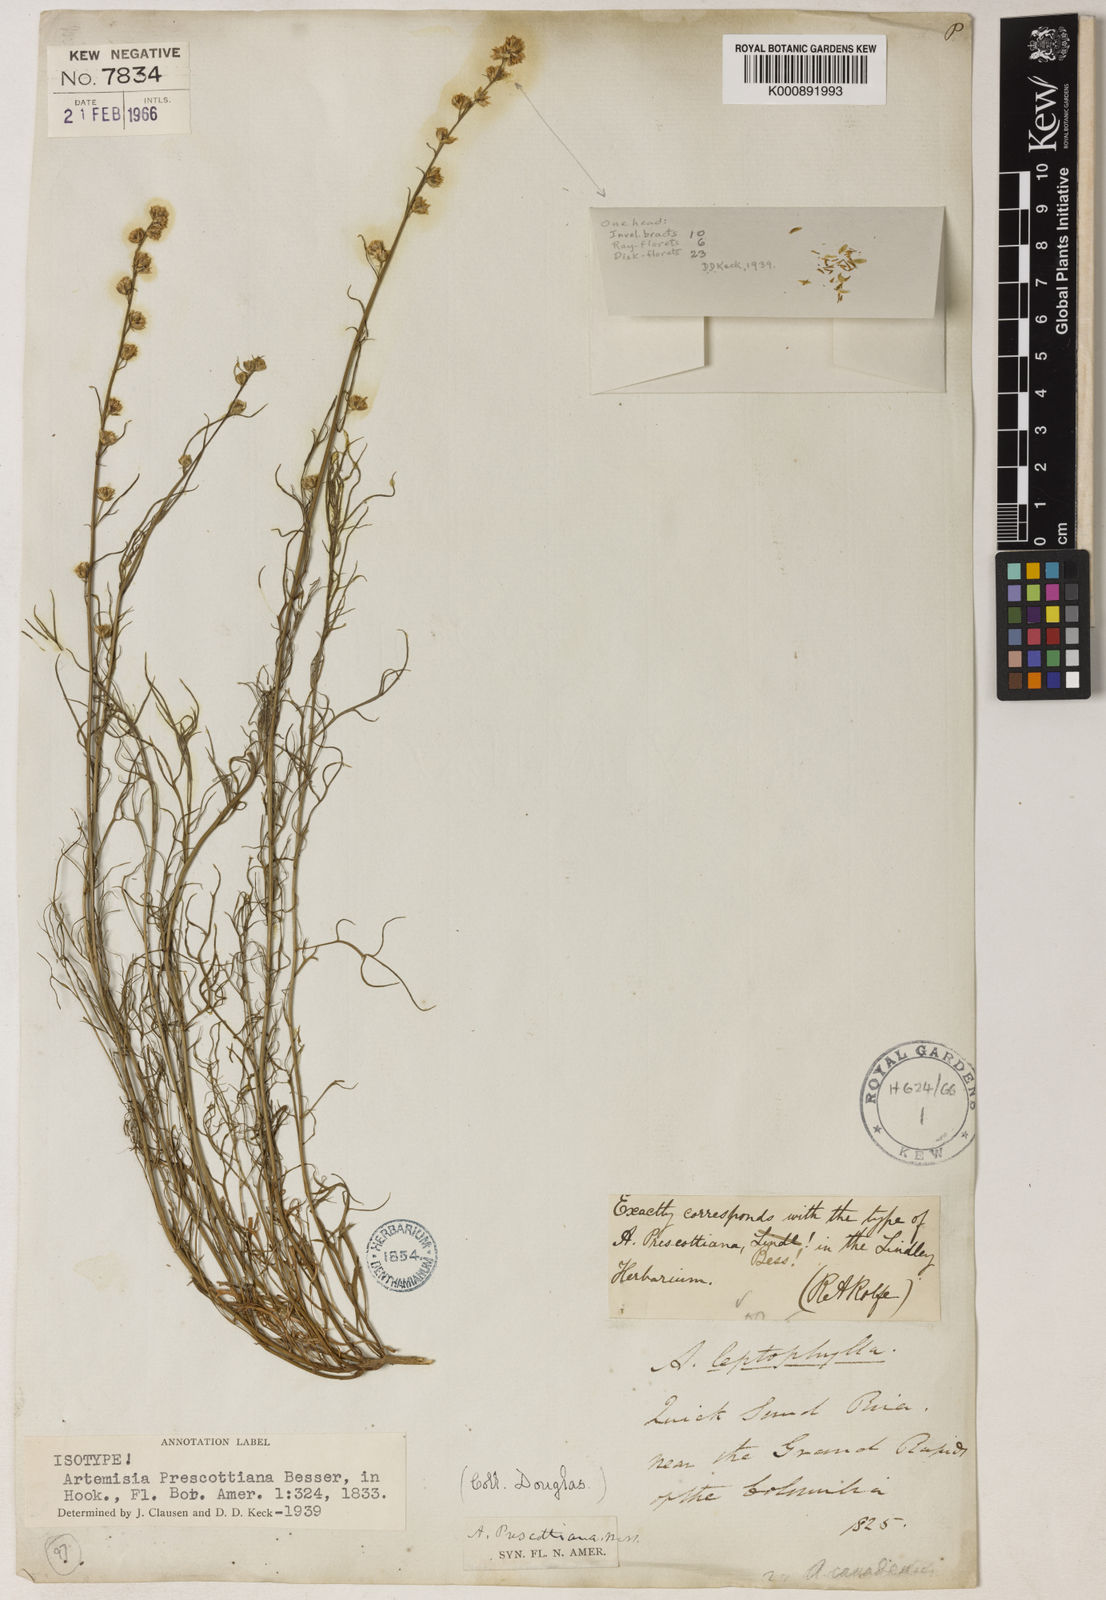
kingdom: Plantae
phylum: Tracheophyta
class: Magnoliopsida
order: Asterales
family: Asteraceae
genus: Artemisia
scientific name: Artemisia ludoviciana
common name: Western mugwort
